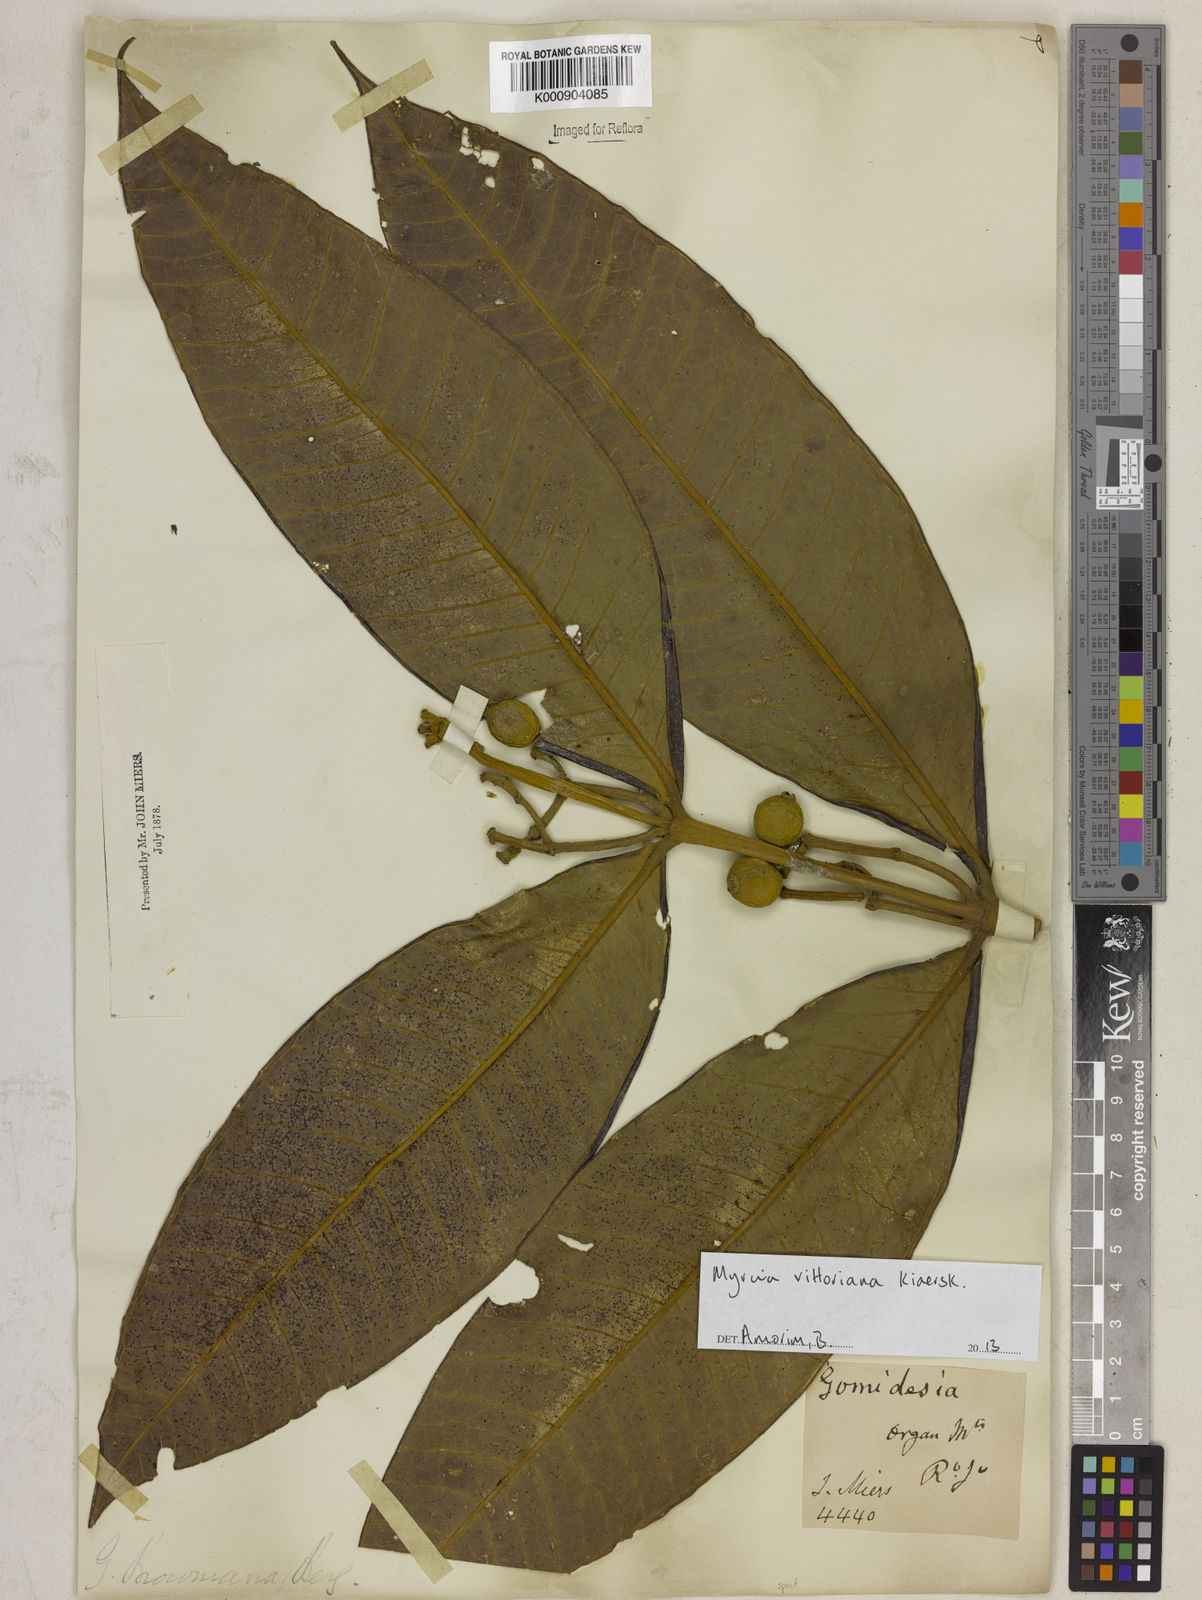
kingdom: Plantae
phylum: Tracheophyta
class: Magnoliopsida
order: Myrtales
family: Myrtaceae
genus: Myrcia
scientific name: Myrcia spectabilis
